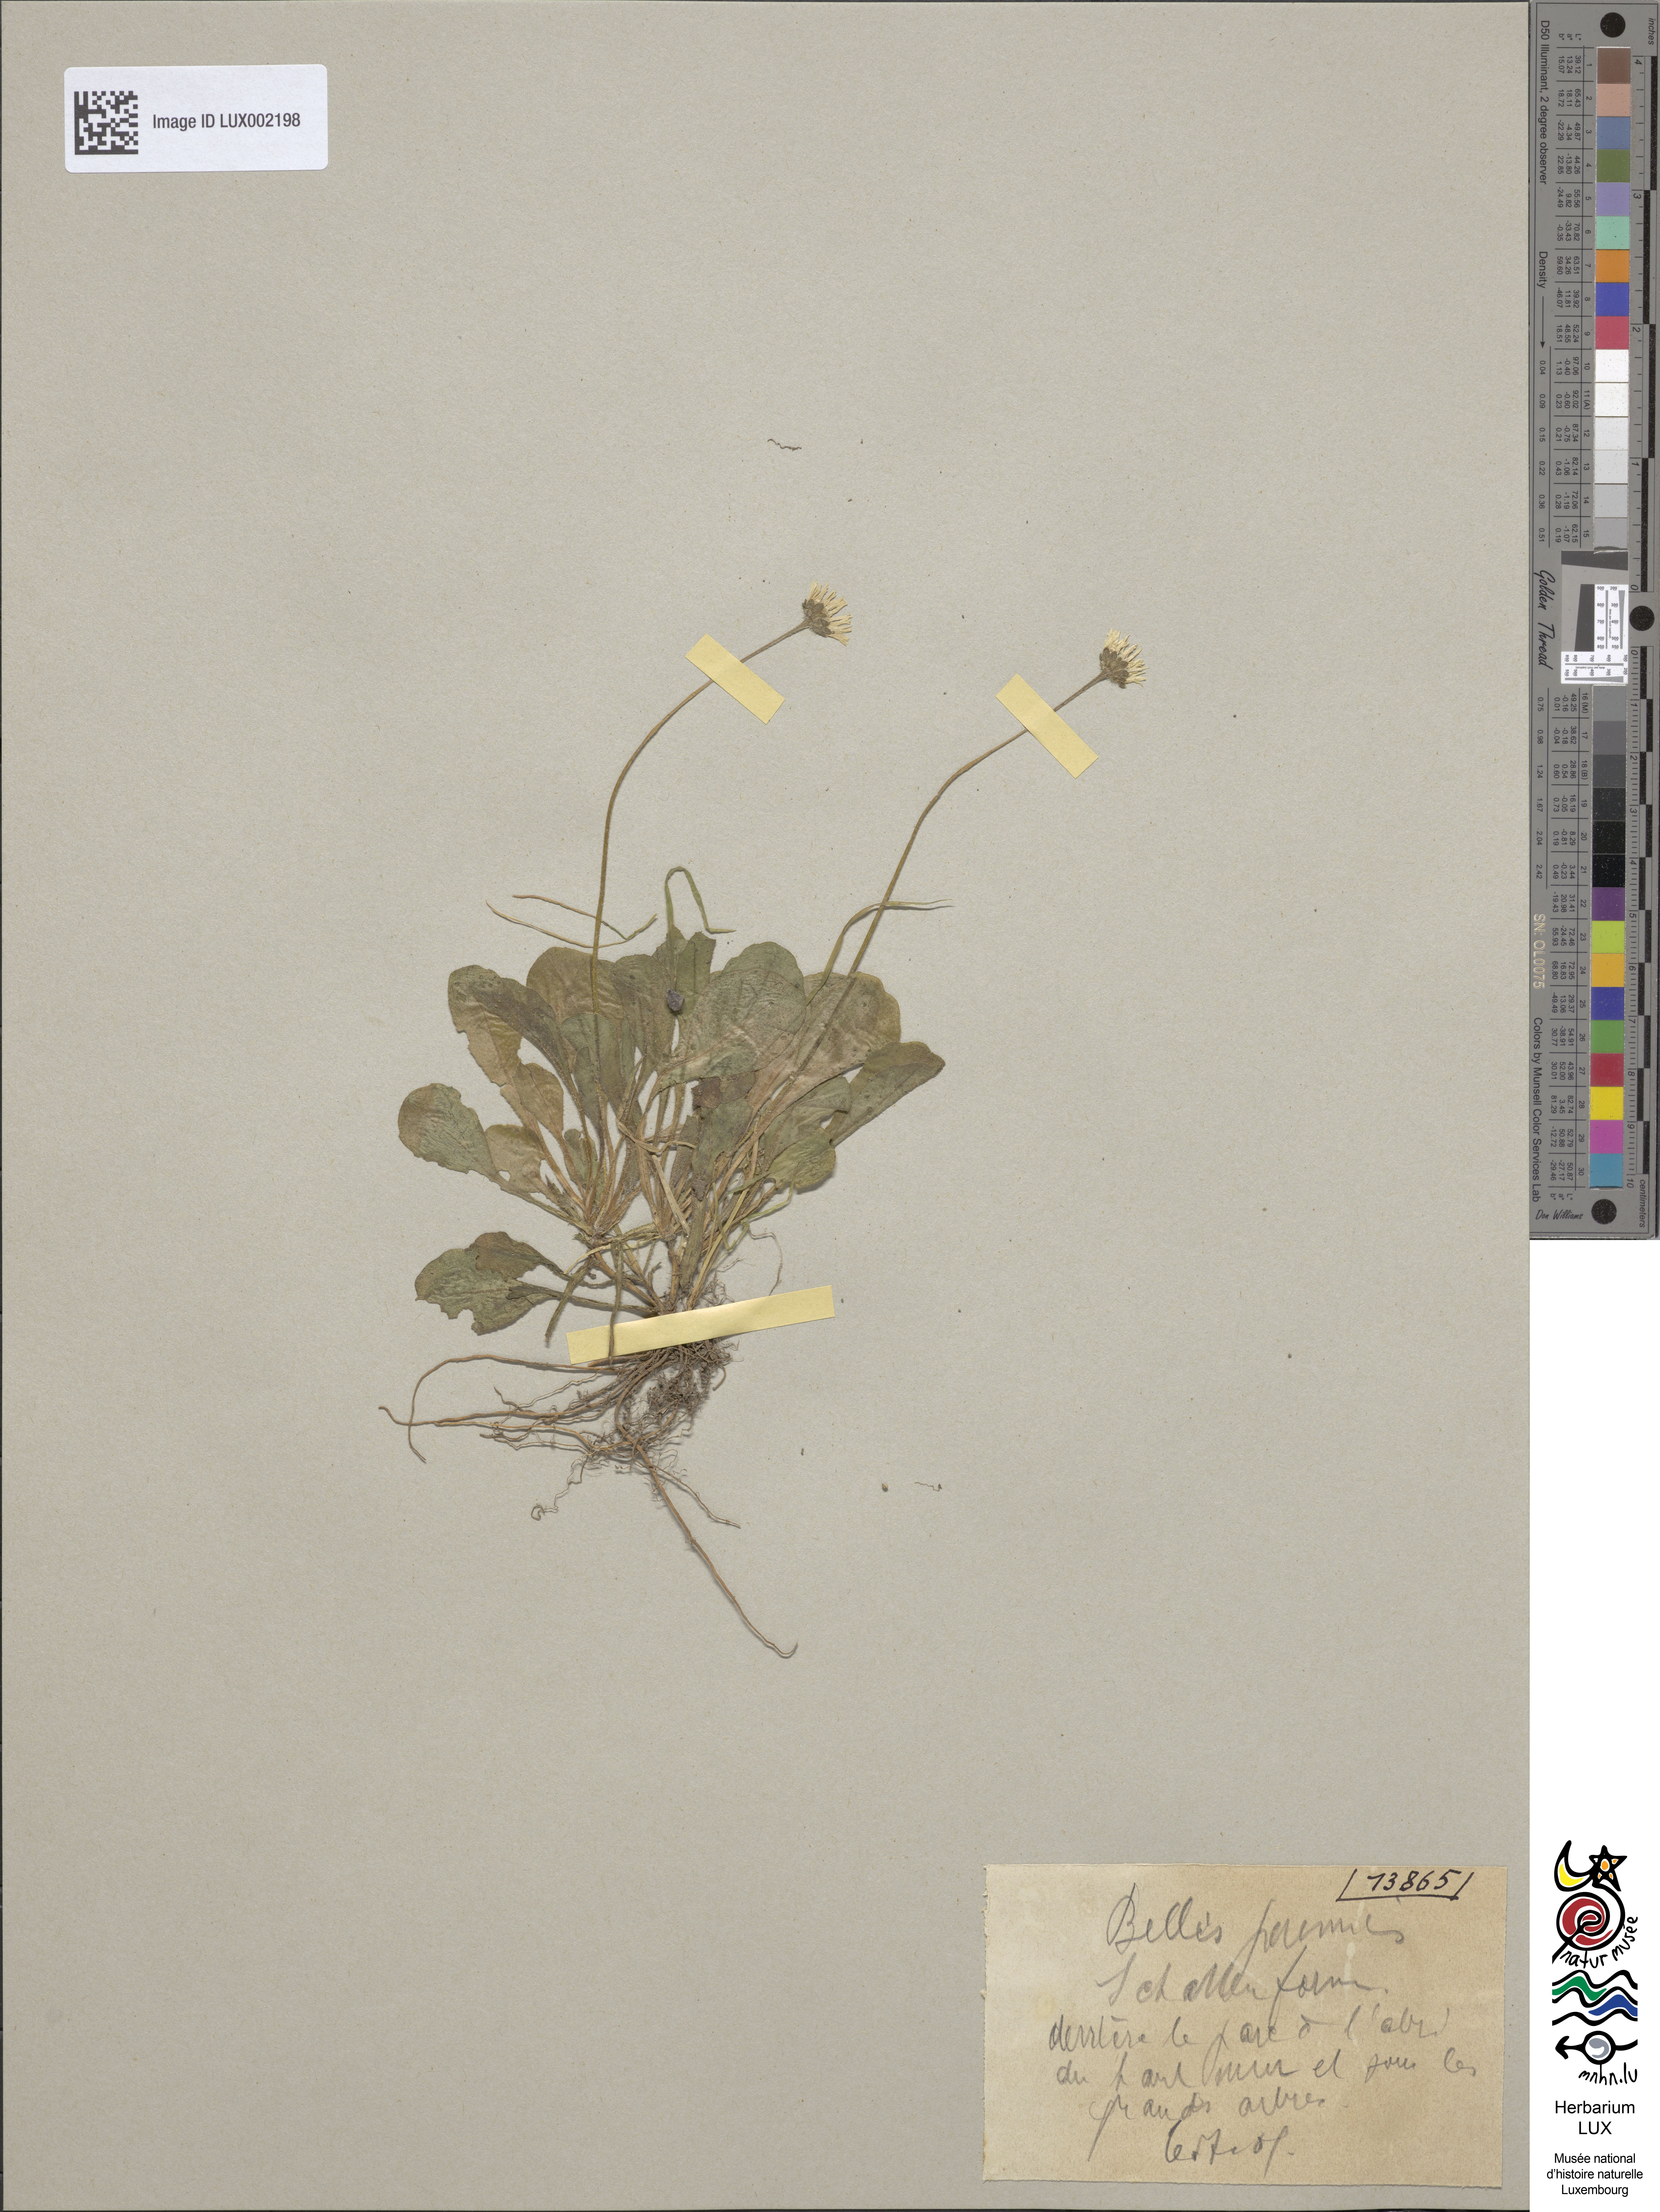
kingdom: Plantae
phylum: Tracheophyta
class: Magnoliopsida
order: Asterales
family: Asteraceae
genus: Bellis
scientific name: Bellis perennis
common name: Lawndaisy
